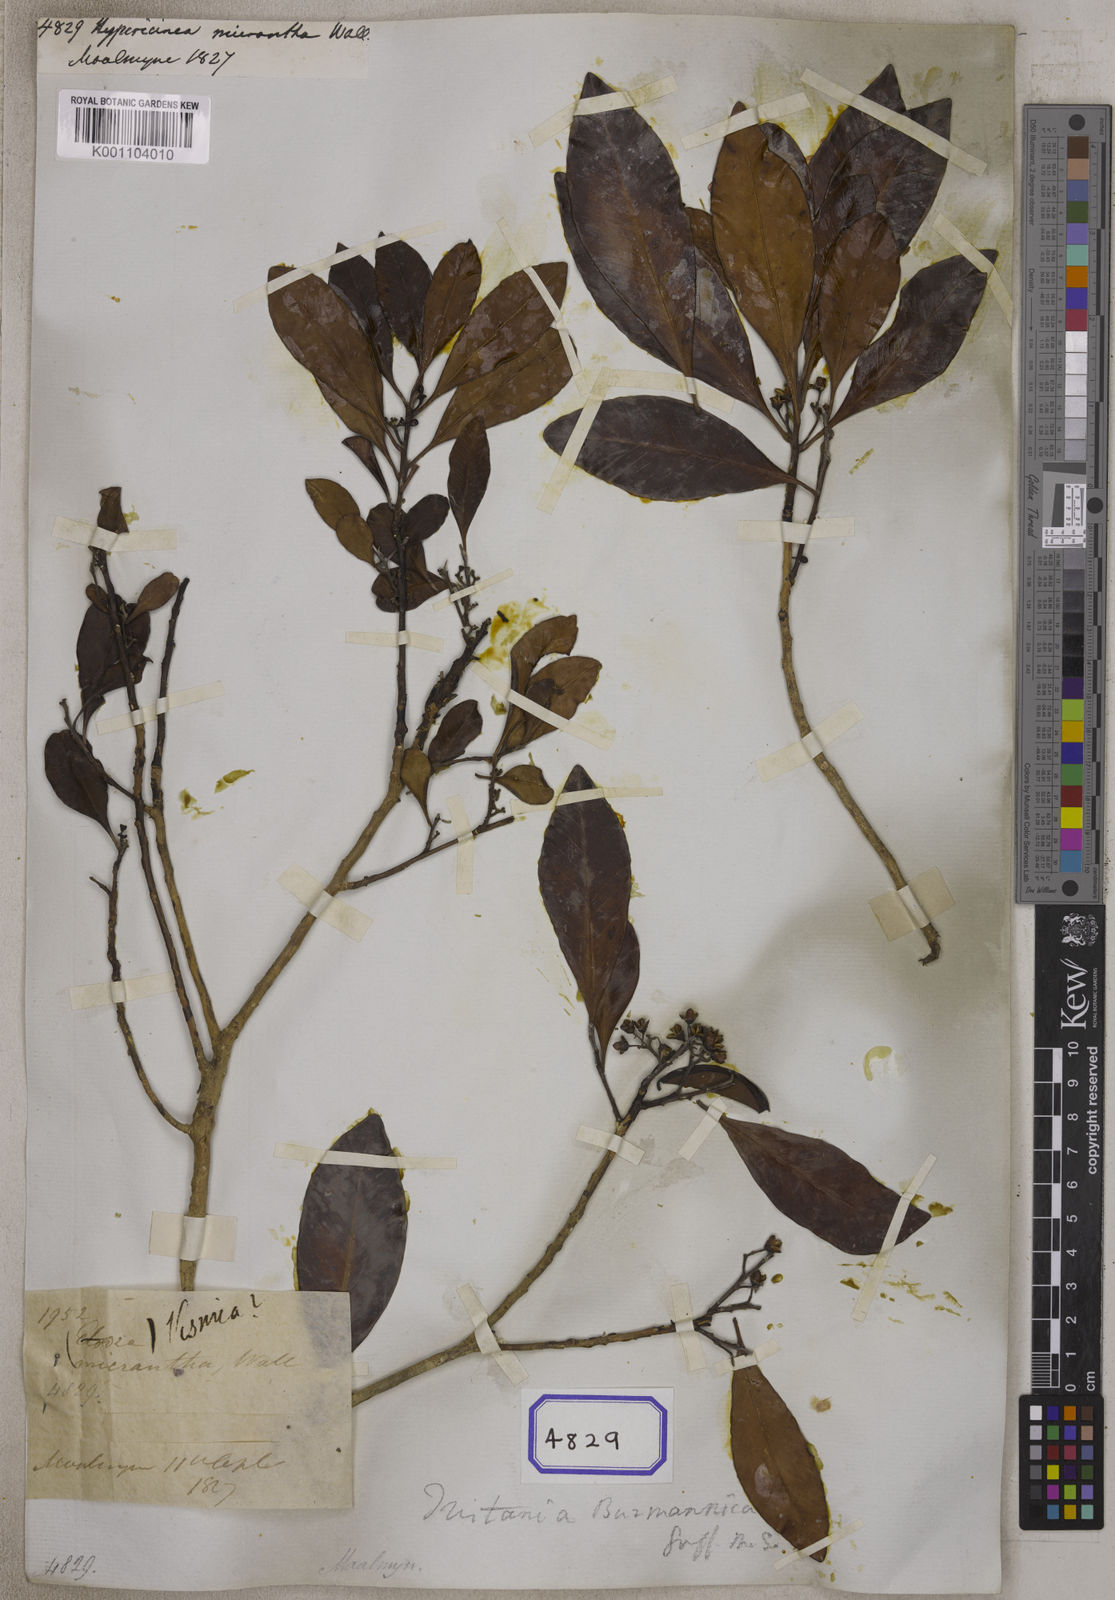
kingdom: Plantae
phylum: Tracheophyta
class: Magnoliopsida
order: Myrtales
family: Myrtaceae
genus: Tristaniopsis
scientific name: Tristaniopsis burmanica
